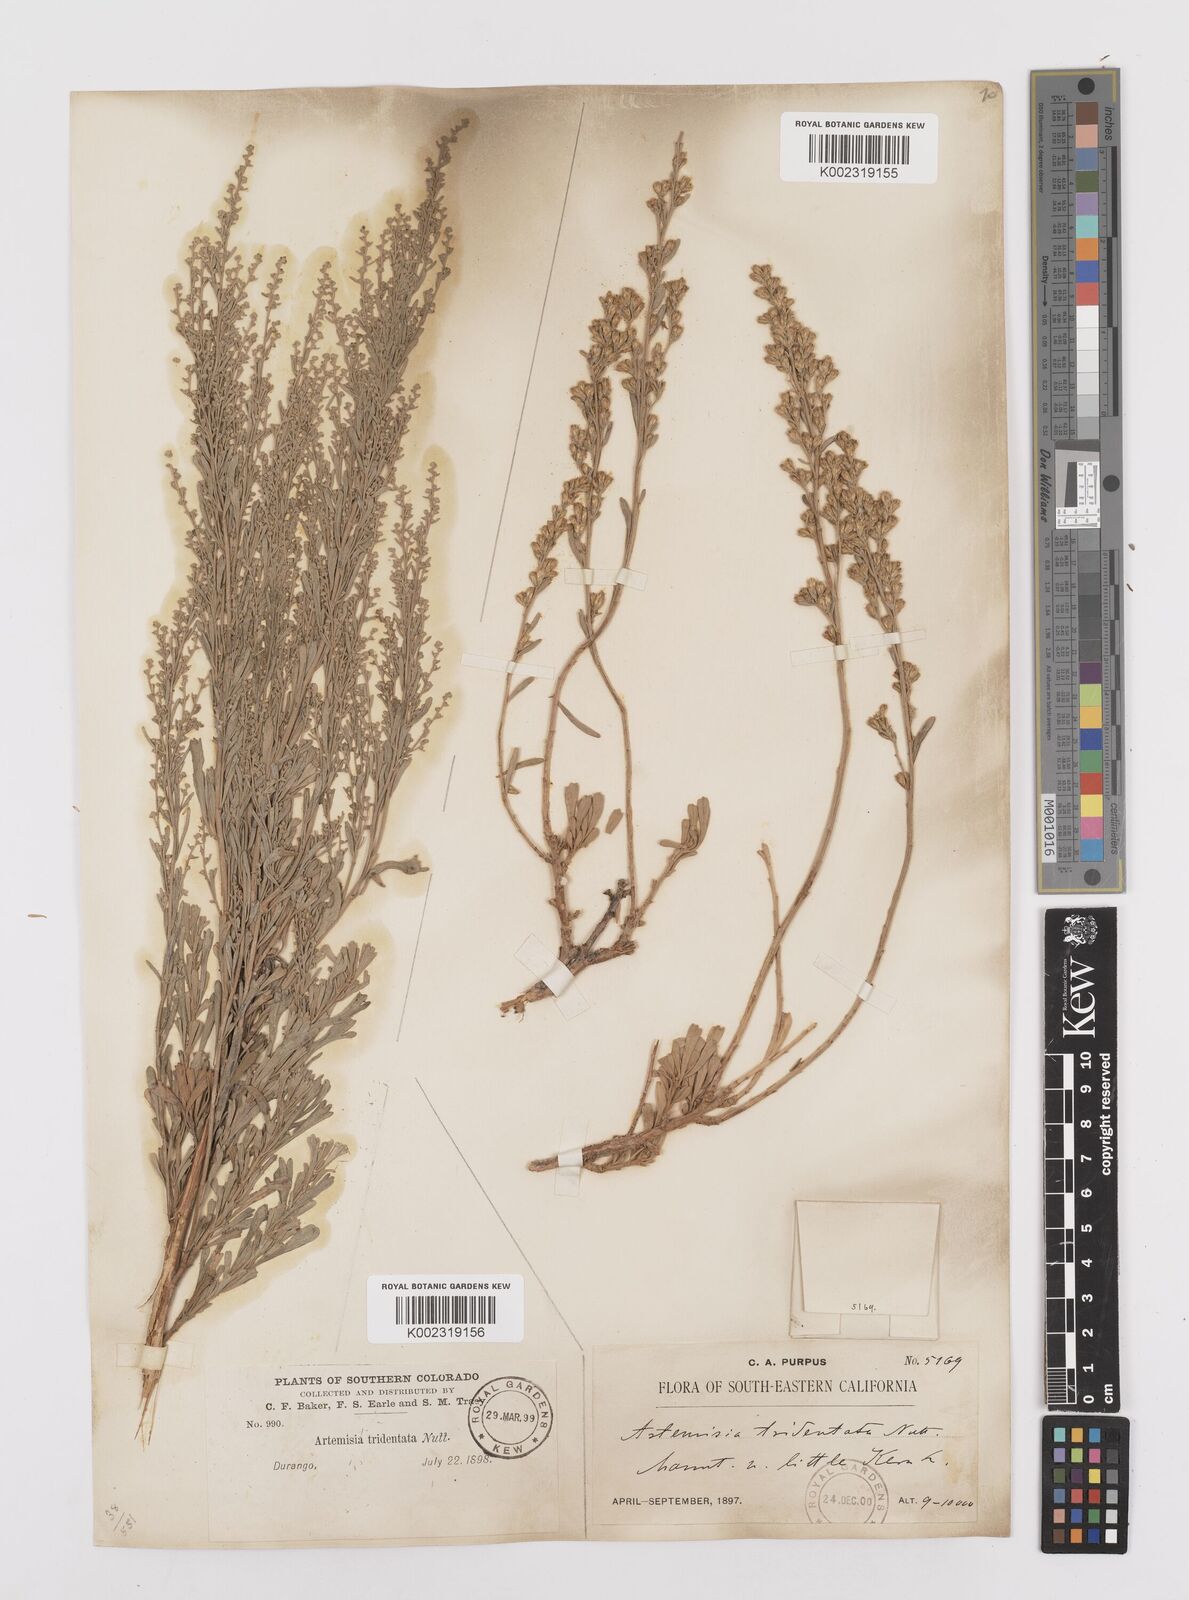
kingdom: Plantae
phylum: Tracheophyta
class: Magnoliopsida
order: Asterales
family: Asteraceae
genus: Artemisia
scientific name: Artemisia tridentata
